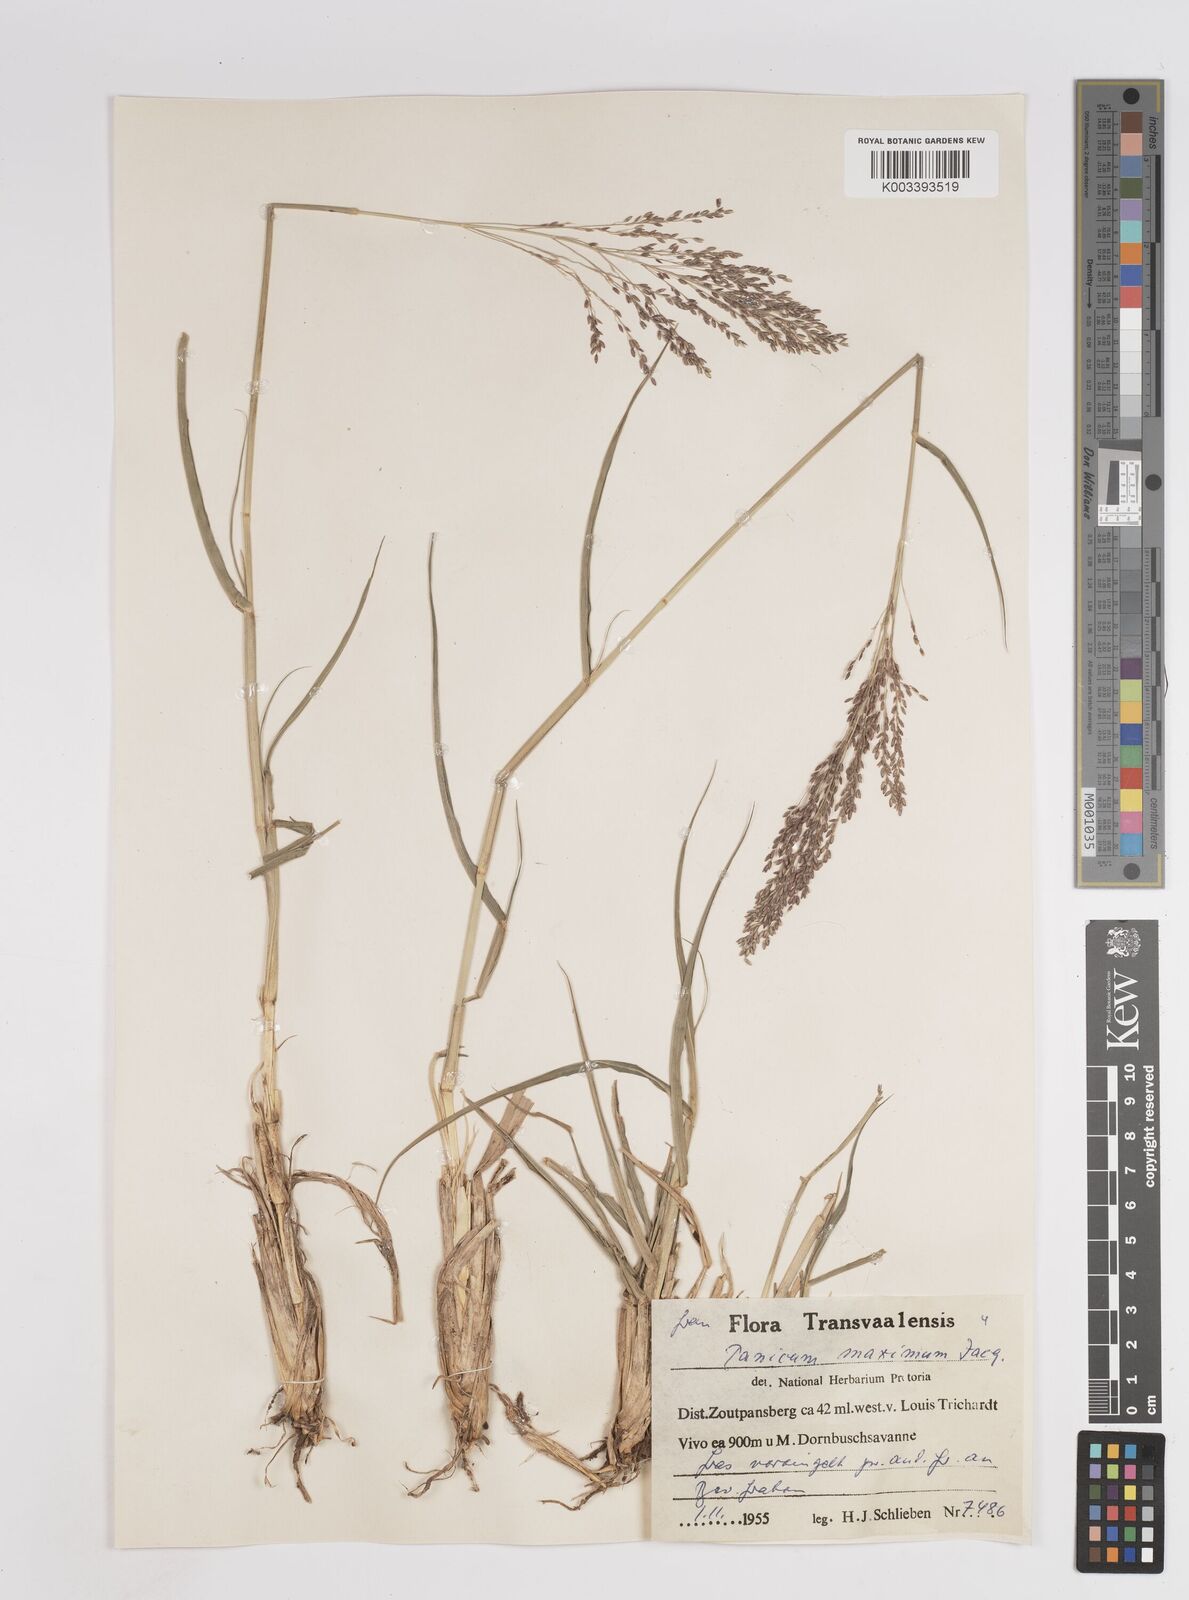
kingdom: Plantae
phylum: Tracheophyta
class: Liliopsida
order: Poales
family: Poaceae
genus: Megathyrsus
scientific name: Megathyrsus maximus
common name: Guineagrass
